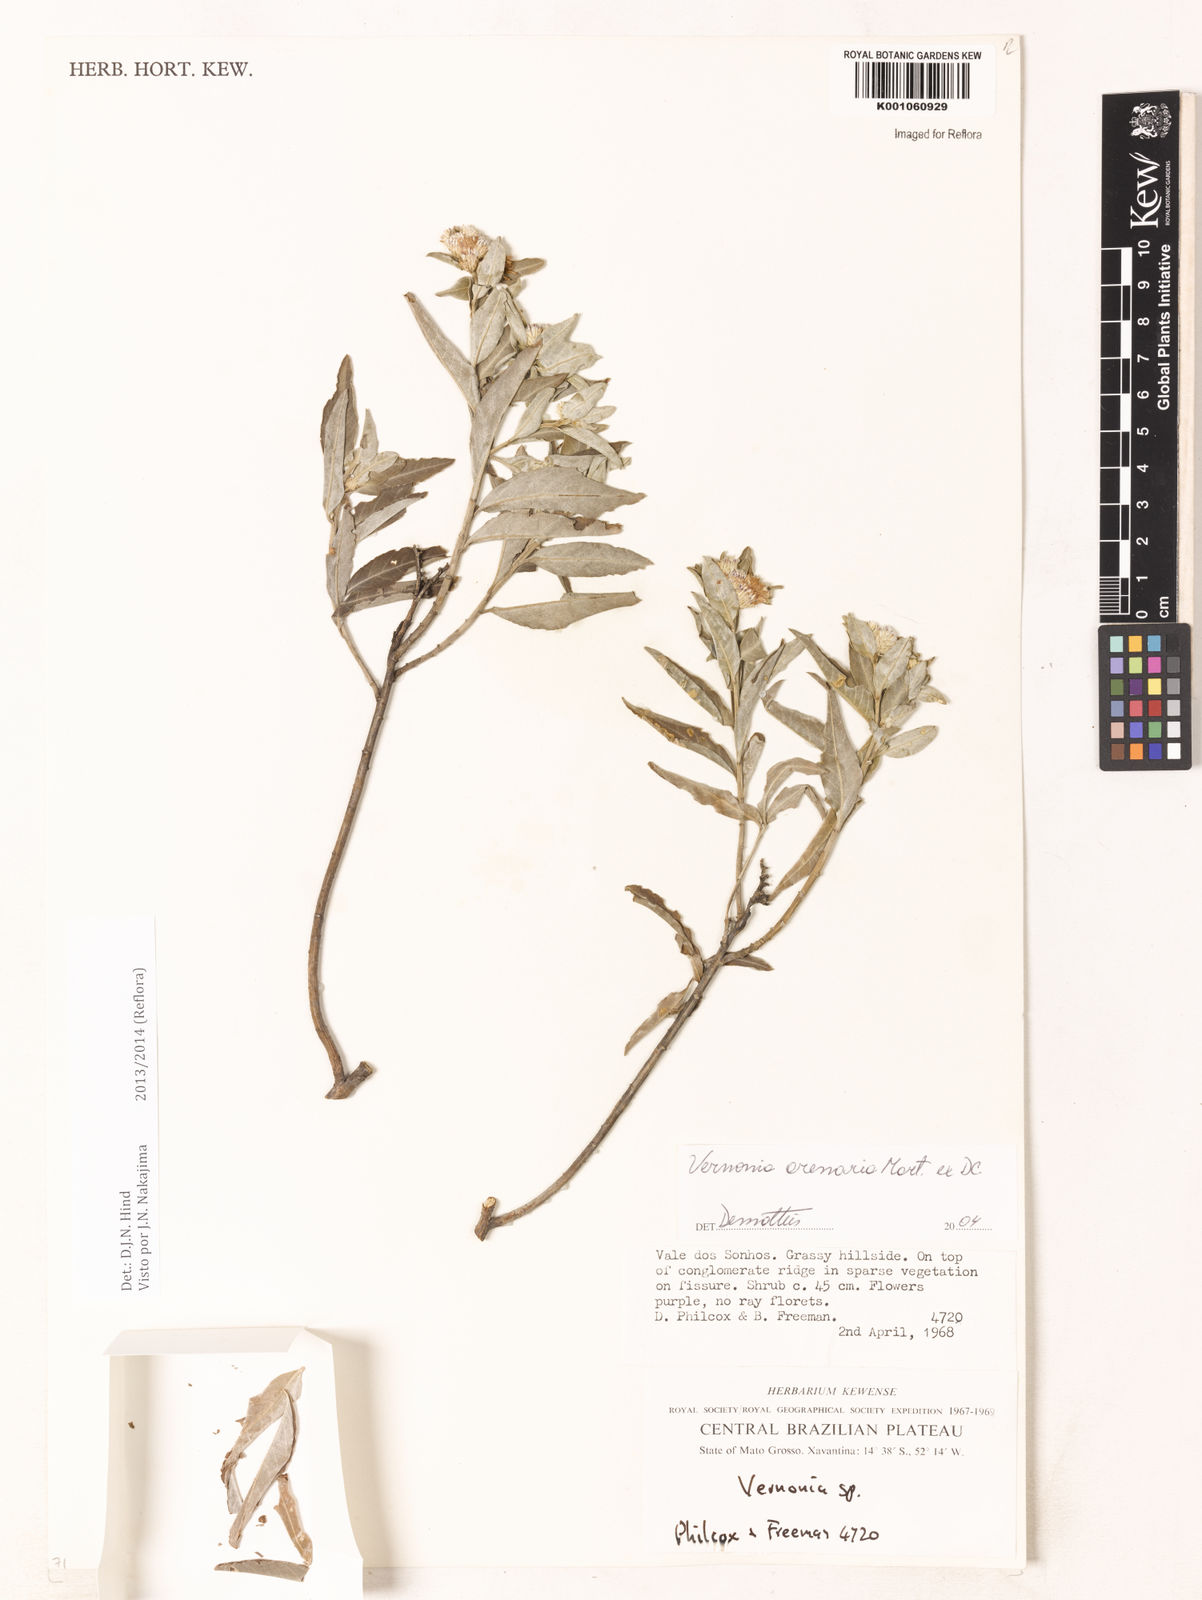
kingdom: Plantae
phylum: Tracheophyta
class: Magnoliopsida
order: Asterales
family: Asteraceae
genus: Lepidaploa
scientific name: Lepidaploa arenaria
